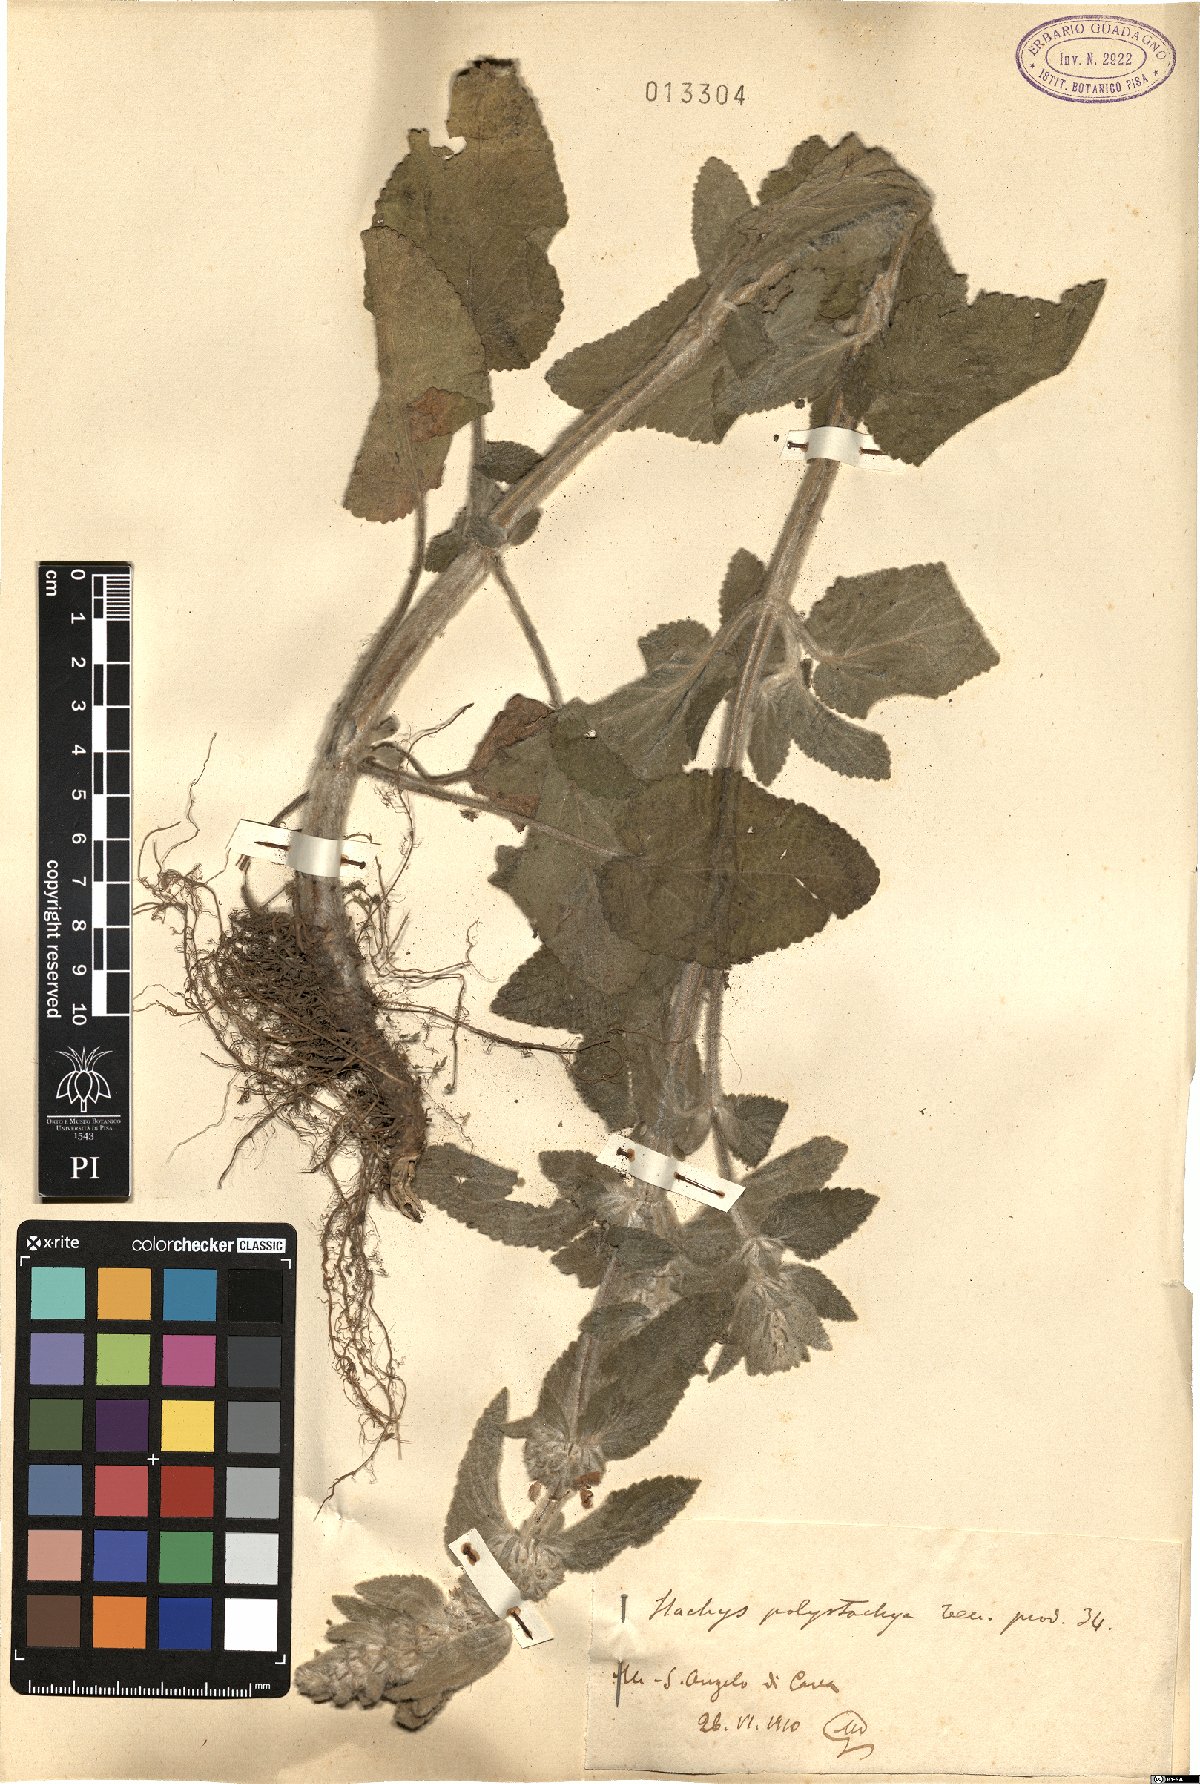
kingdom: Plantae
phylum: Tracheophyta
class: Magnoliopsida
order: Lamiales
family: Lamiaceae
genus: Stachys
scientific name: Stachys germanica
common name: Downy woundwort
